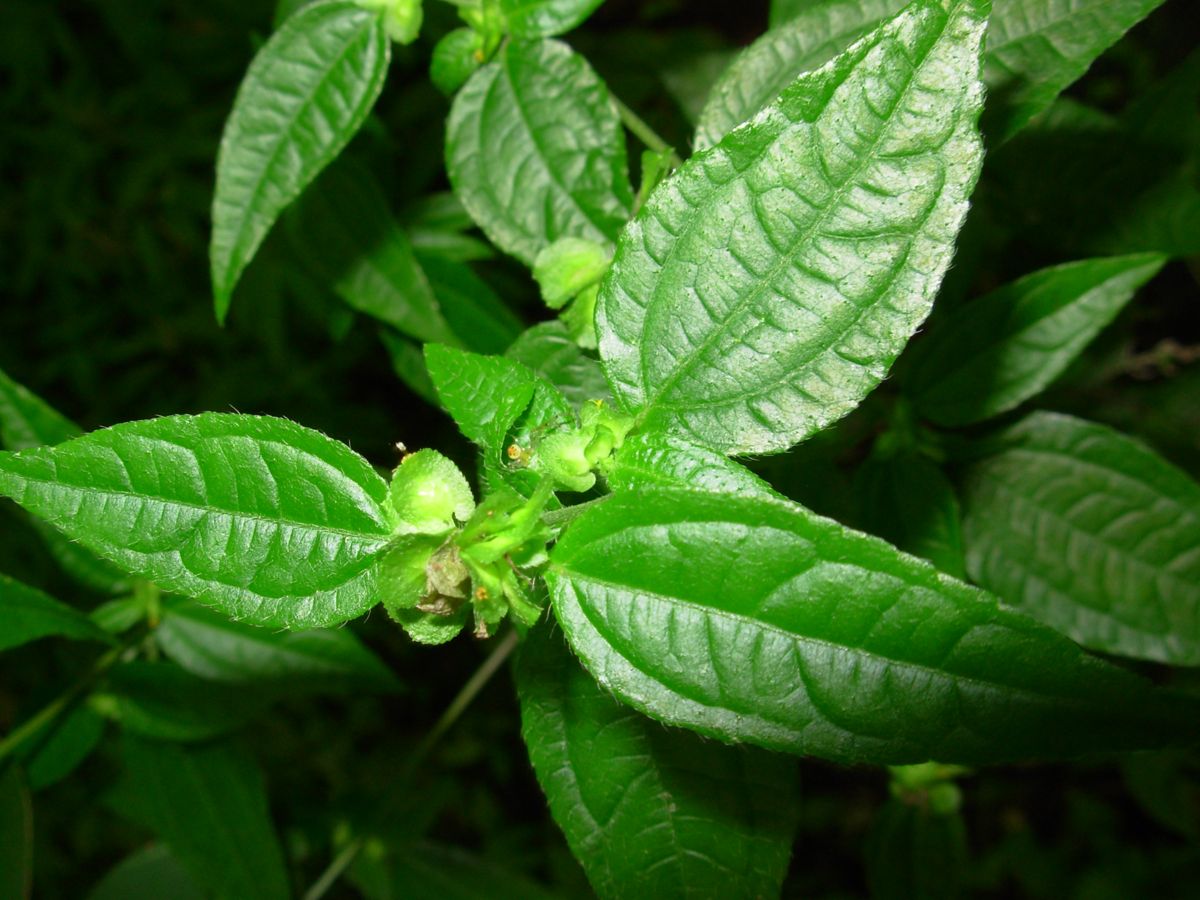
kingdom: Plantae
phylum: Tracheophyta
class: Magnoliopsida
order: Asterales
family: Asteraceae
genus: Delilia
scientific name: Delilia biflora
